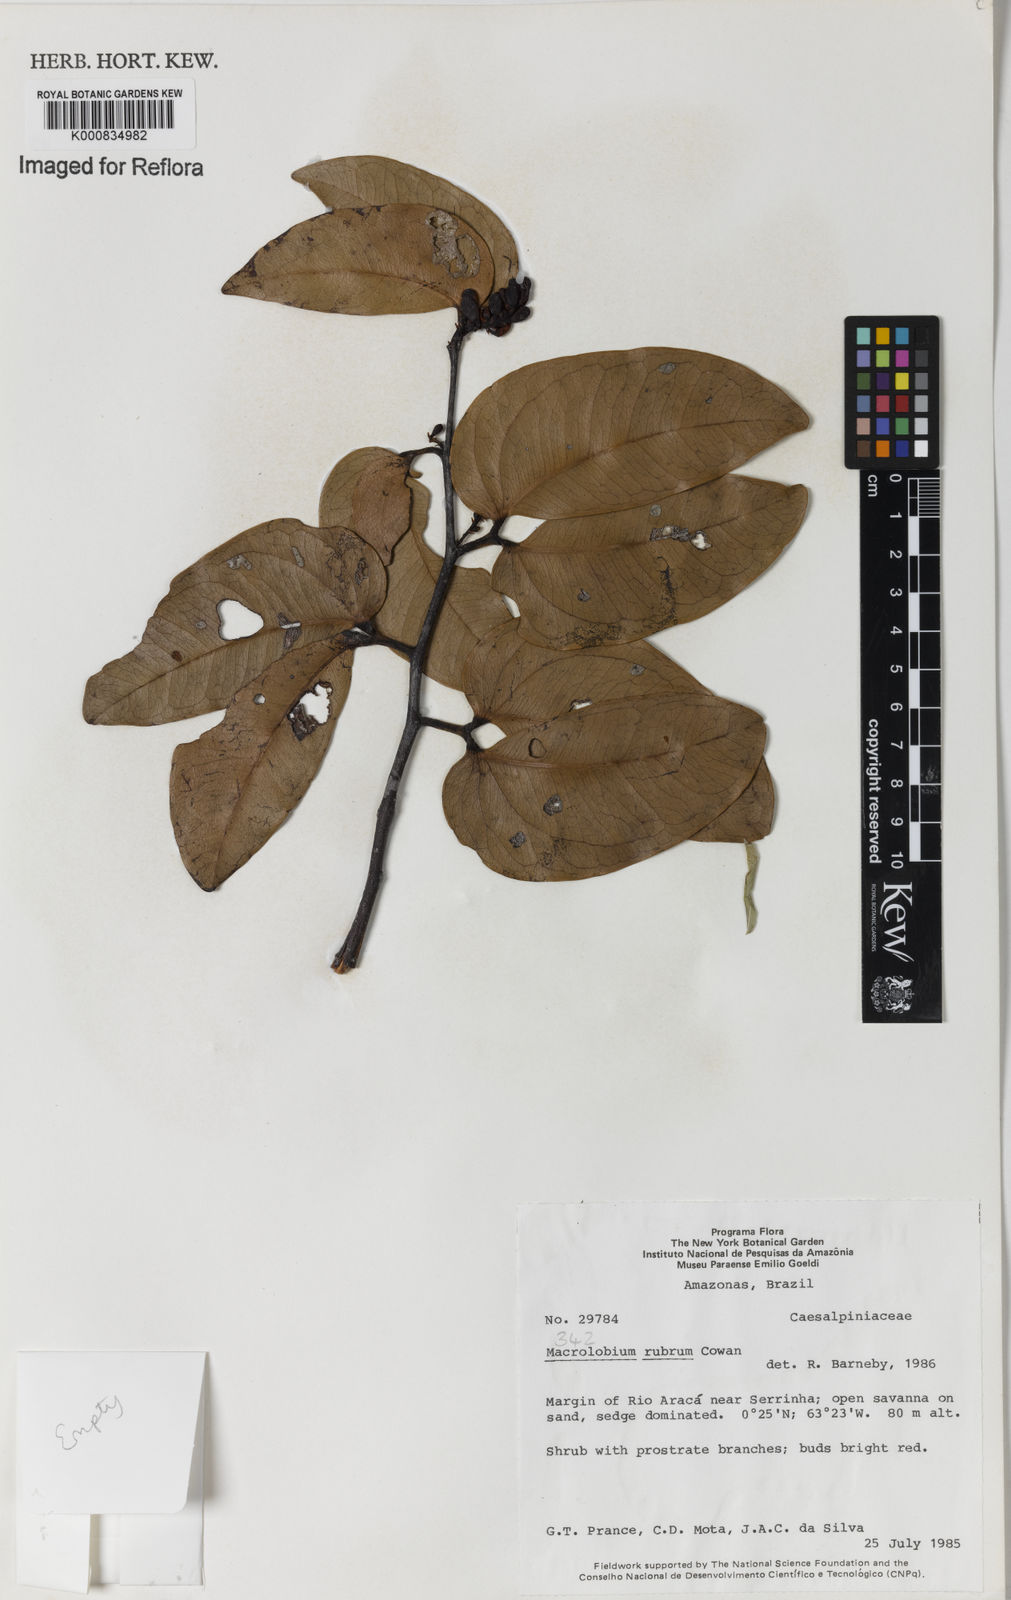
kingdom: Plantae
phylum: Tracheophyta
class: Magnoliopsida
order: Fabales
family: Fabaceae
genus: Macrolobium
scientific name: Macrolobium rubrum
